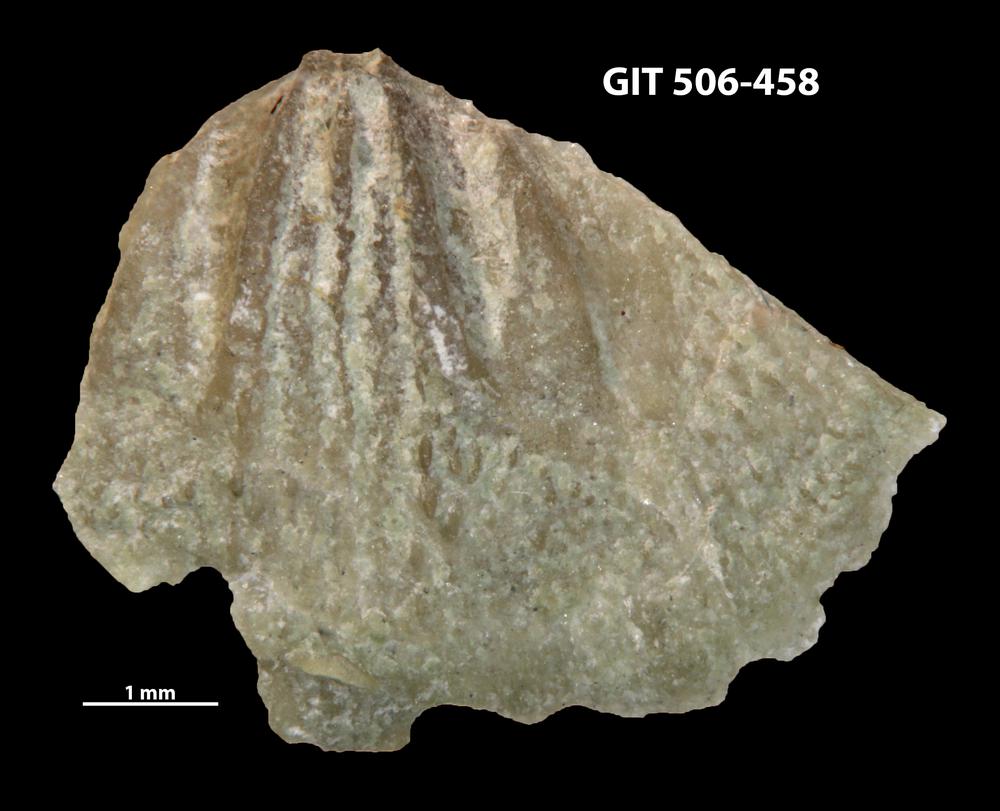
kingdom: Animalia
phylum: Brachiopoda
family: Oldhaminidae
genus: Eoplectodonta
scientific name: Eoplectodonta penkillensis
